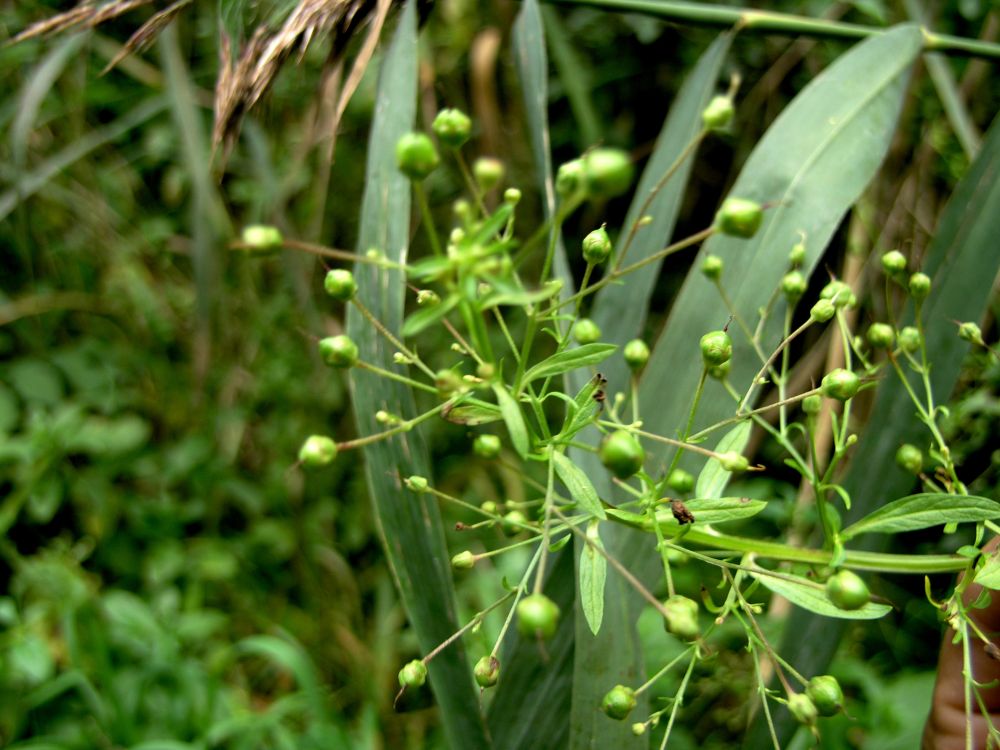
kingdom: Plantae
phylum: Tracheophyta
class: Magnoliopsida
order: Lamiales
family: Scrophulariaceae
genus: Scrophularia
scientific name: Scrophularia umbrosa
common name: Green figwort
